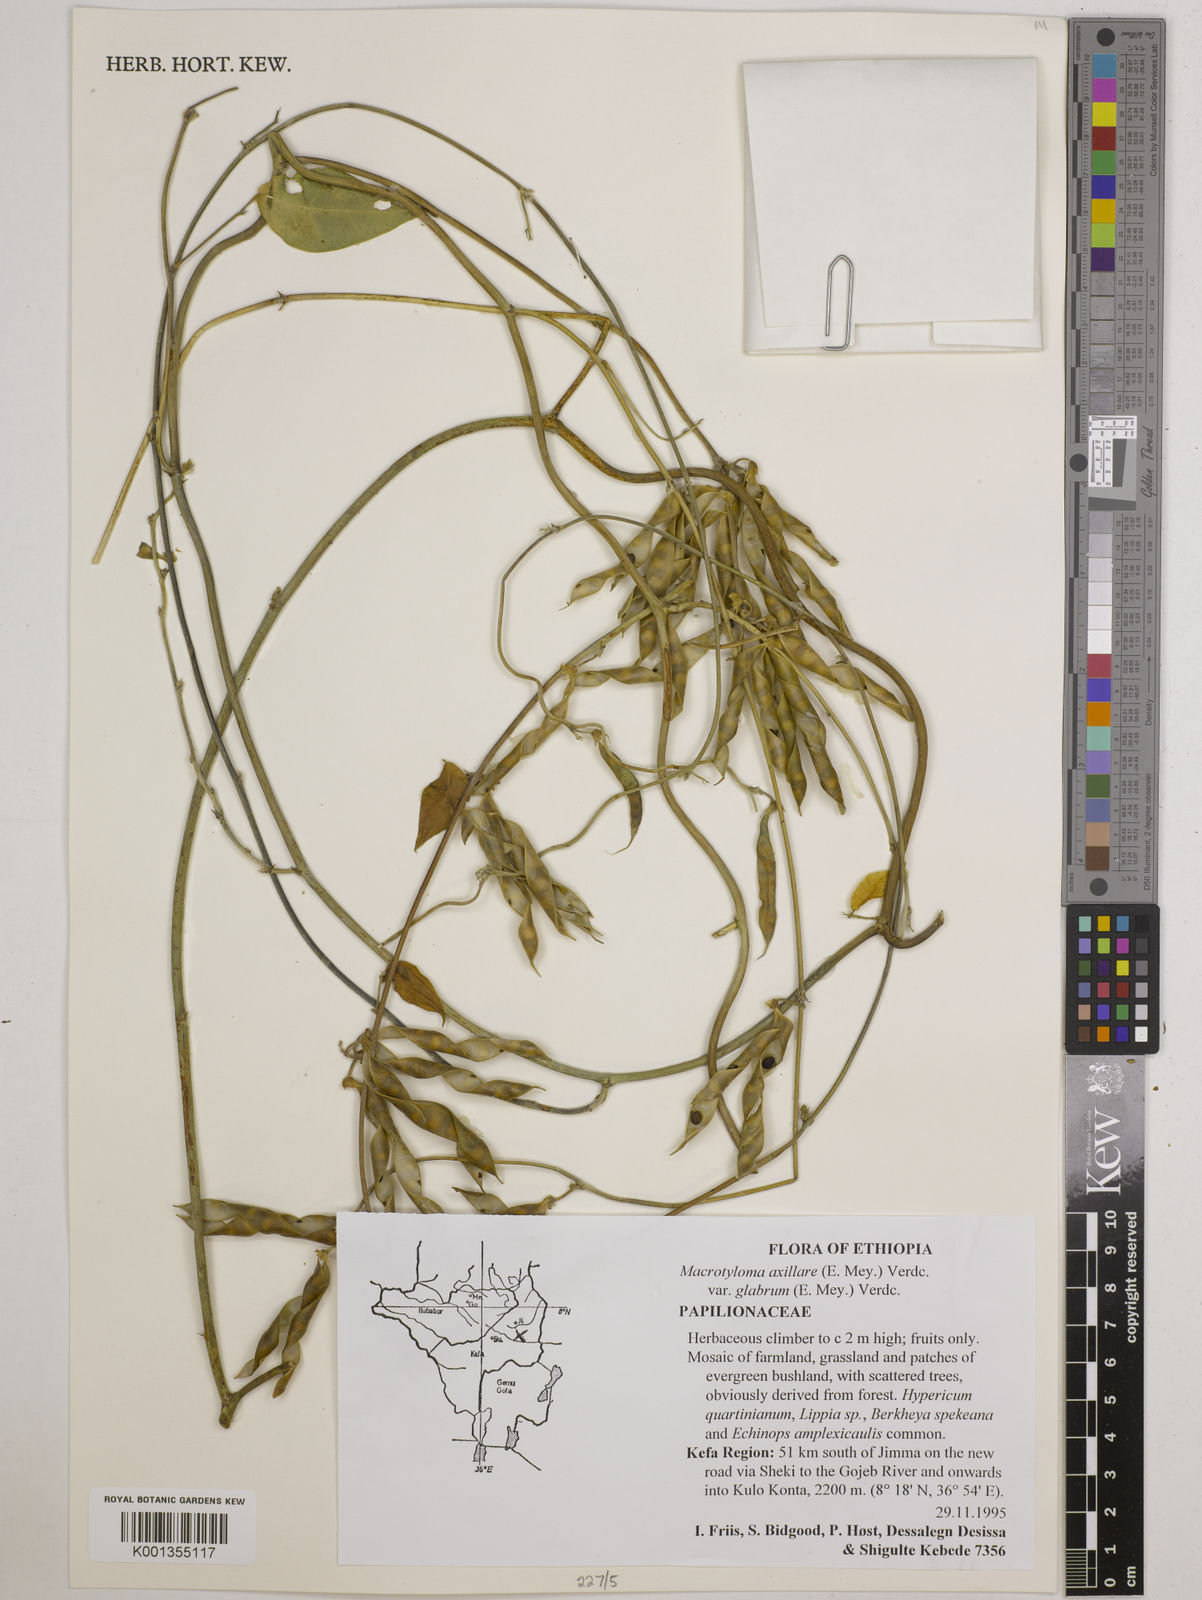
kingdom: Plantae
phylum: Tracheophyta
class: Magnoliopsida
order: Fabales
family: Fabaceae
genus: Macrotyloma
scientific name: Macrotyloma
